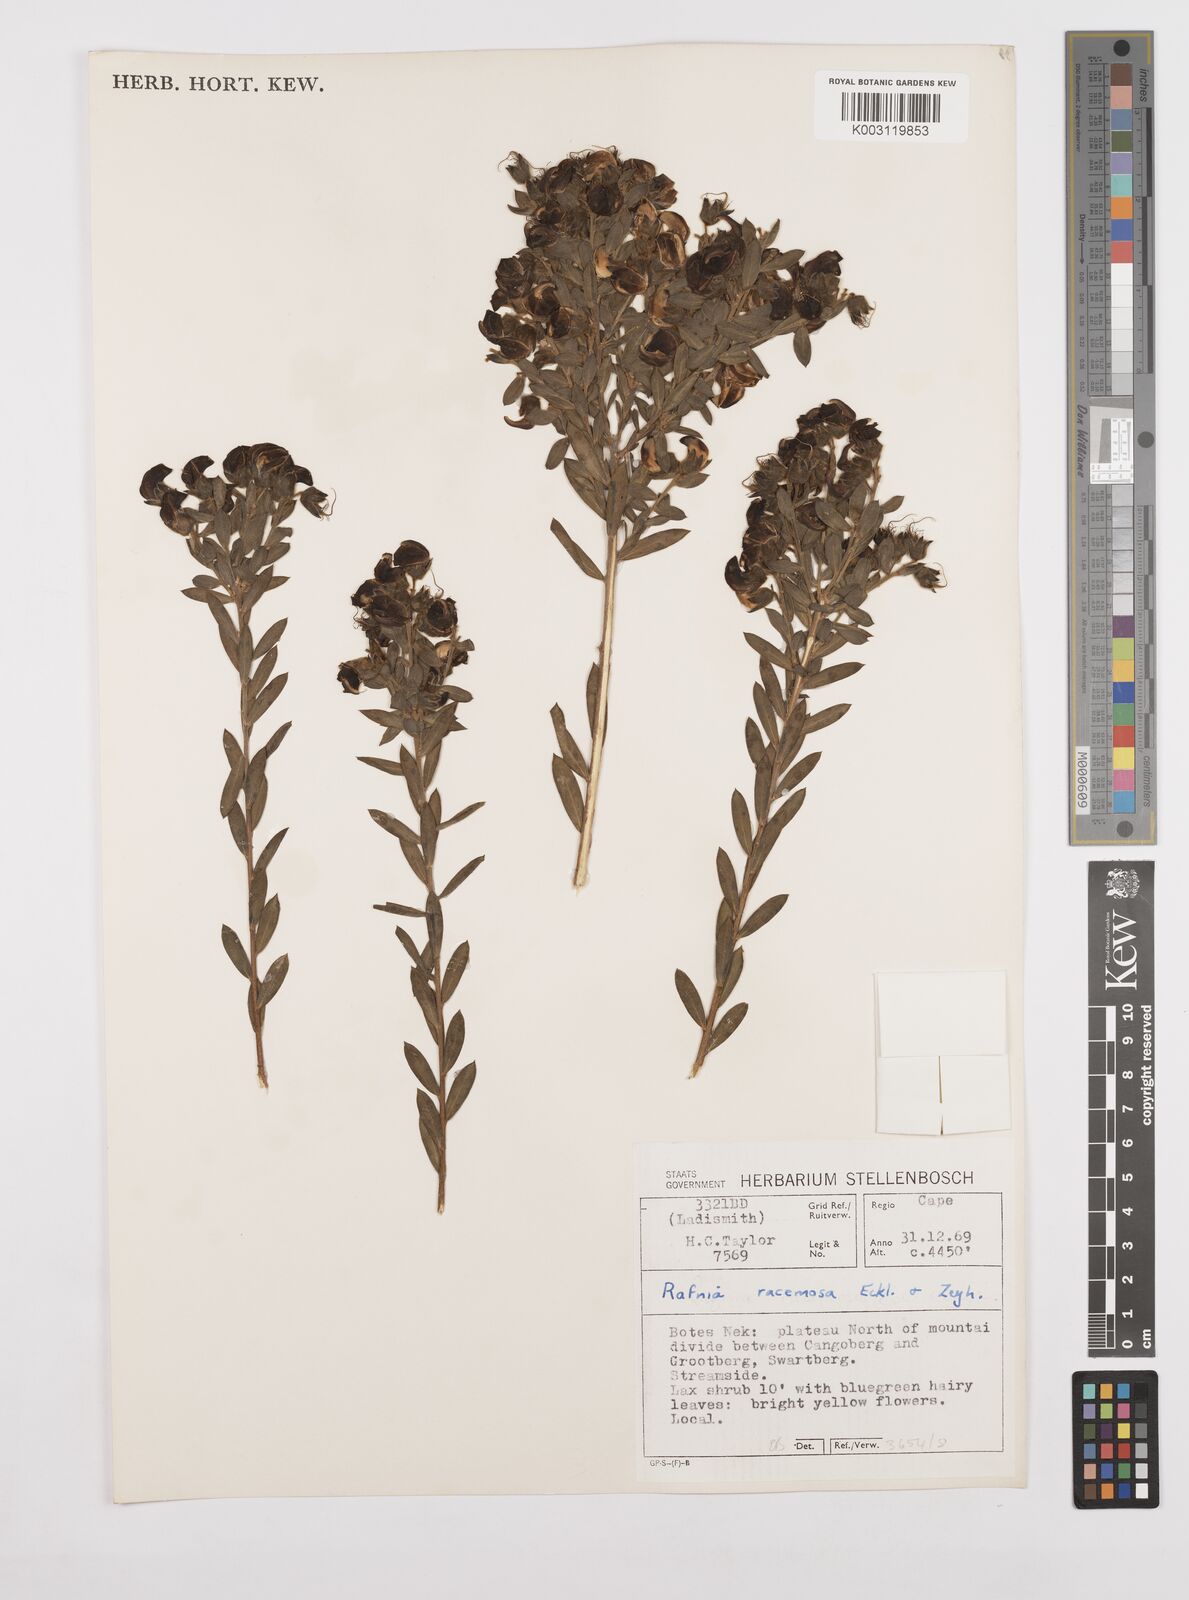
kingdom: Plantae
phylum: Tracheophyta
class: Magnoliopsida
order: Fabales
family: Fabaceae
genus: Liparia
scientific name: Liparia
